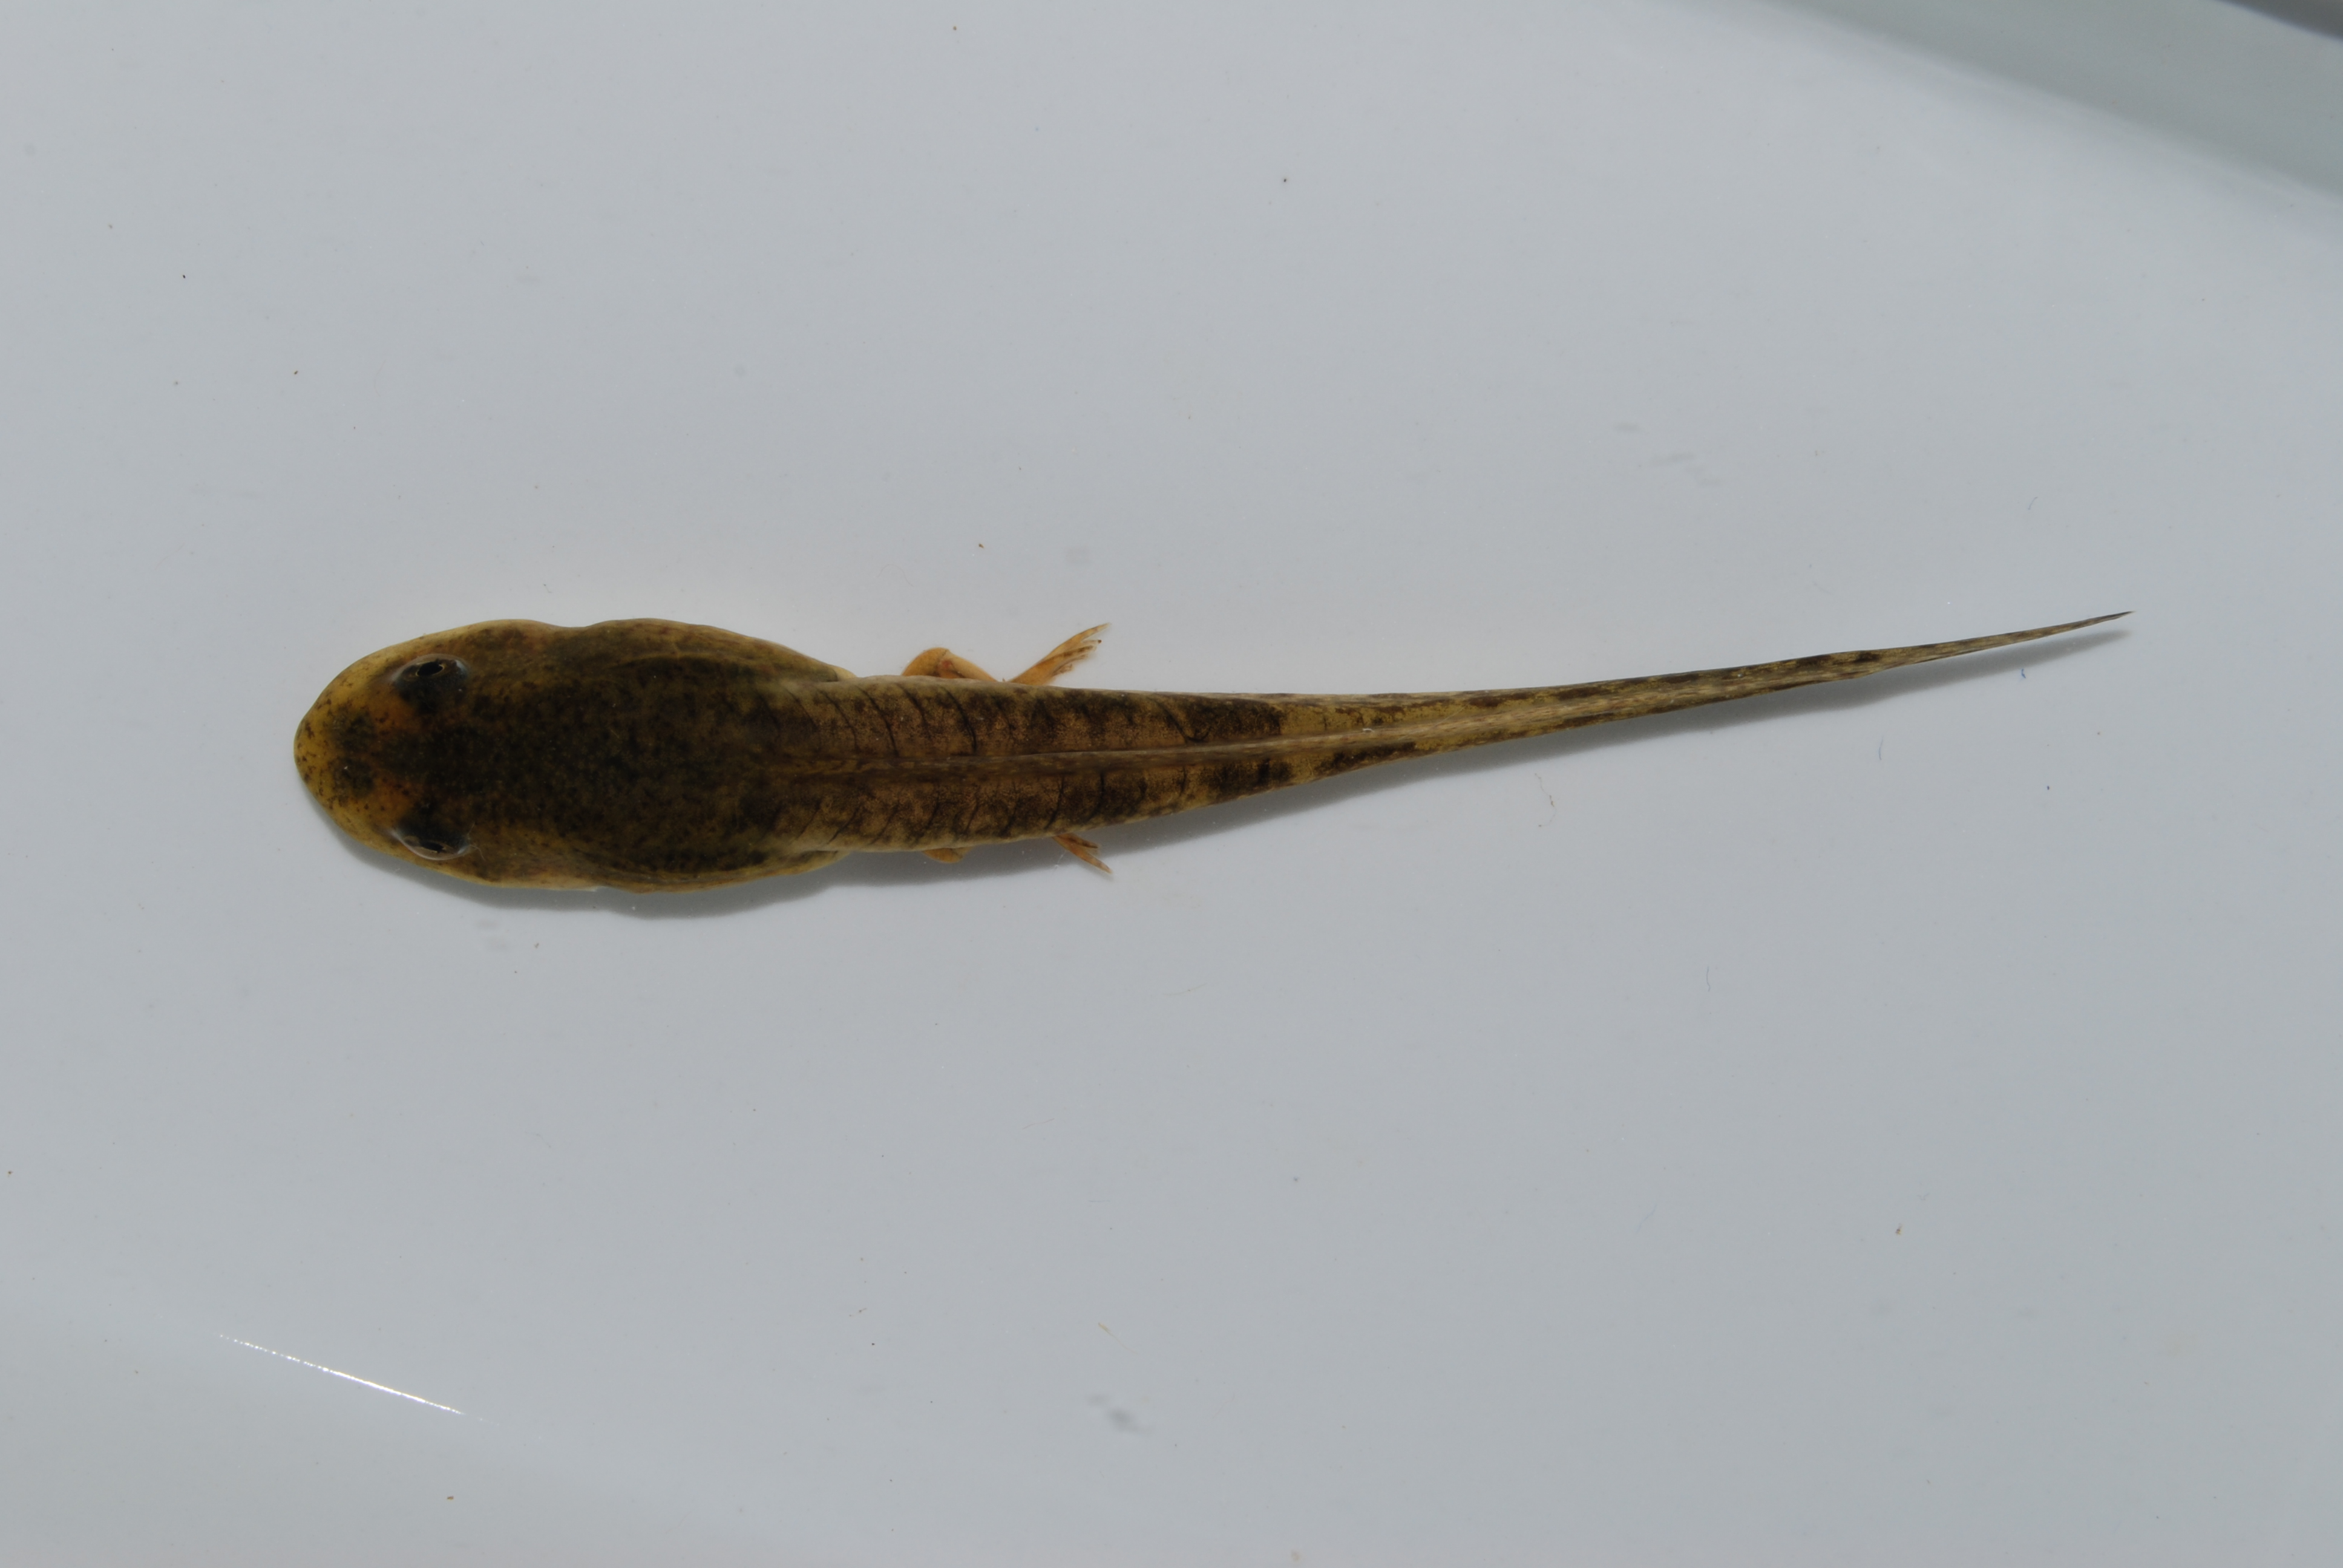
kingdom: Animalia
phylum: Chordata
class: Amphibia
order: Anura
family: Pyxicephalidae
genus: Amietia
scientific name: Amietia
